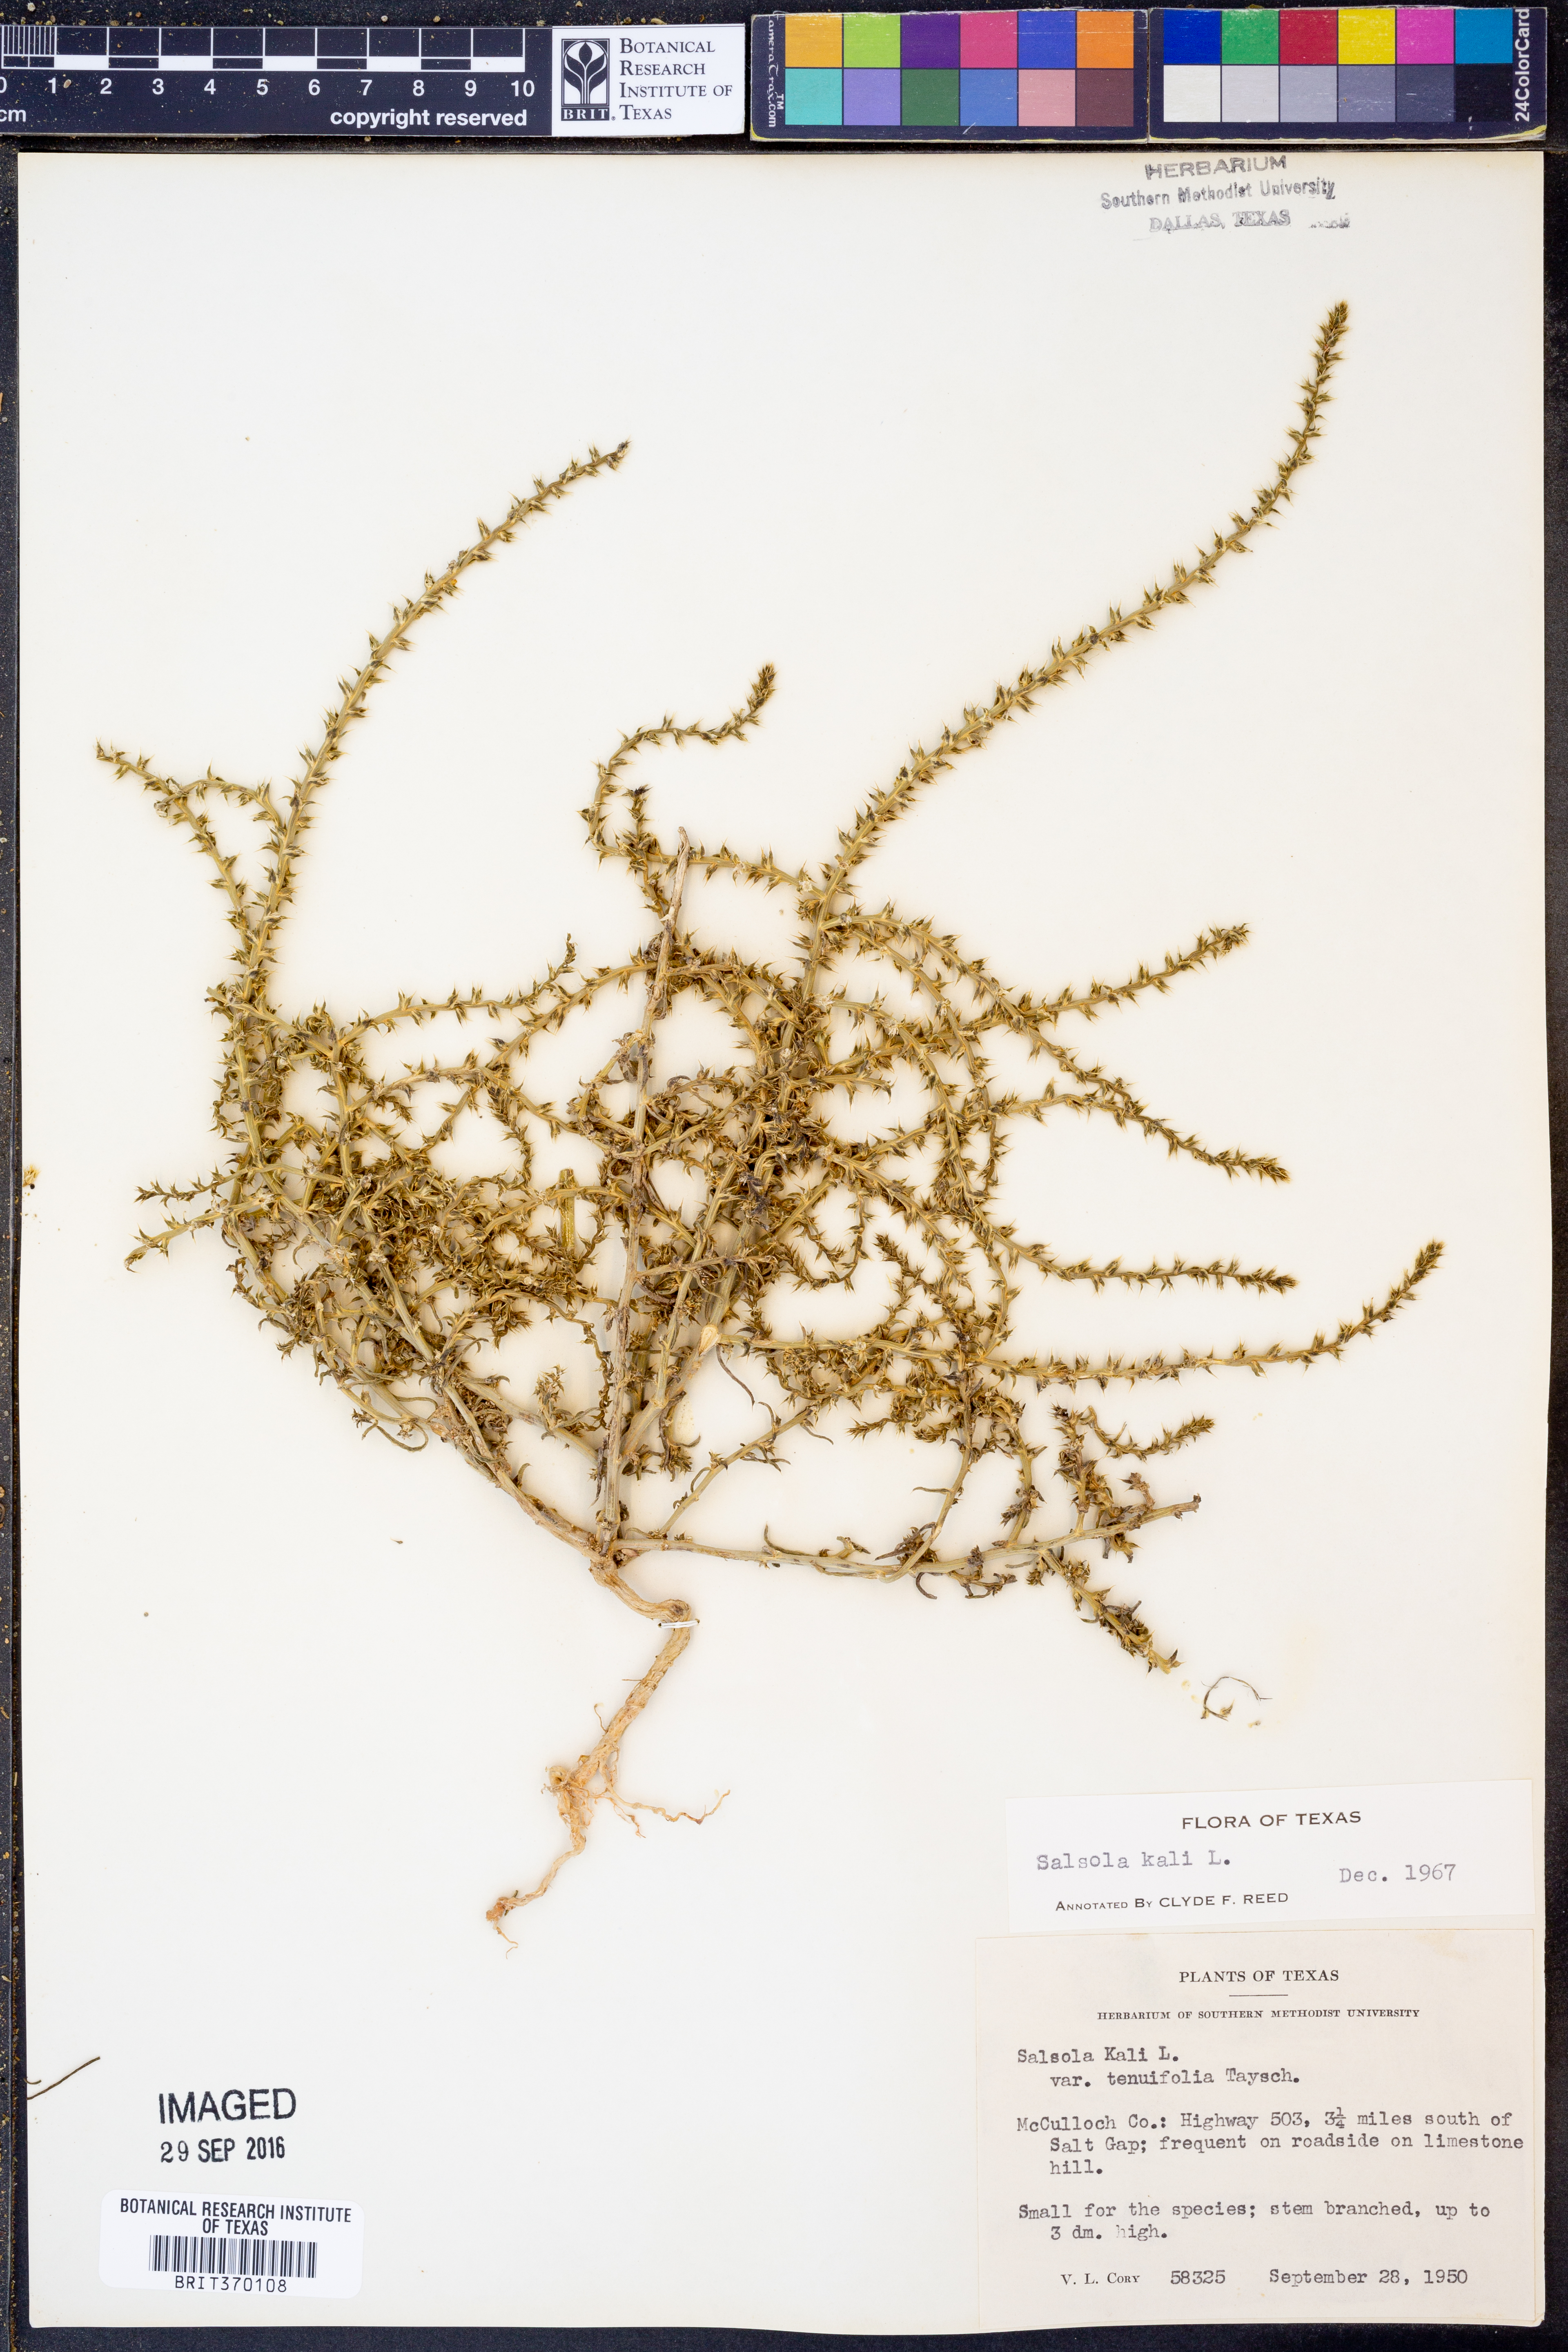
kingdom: Plantae
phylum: Tracheophyta
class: Magnoliopsida
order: Caryophyllales
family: Amaranthaceae
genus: Salsola
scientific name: Salsola kali
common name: Saltwort
